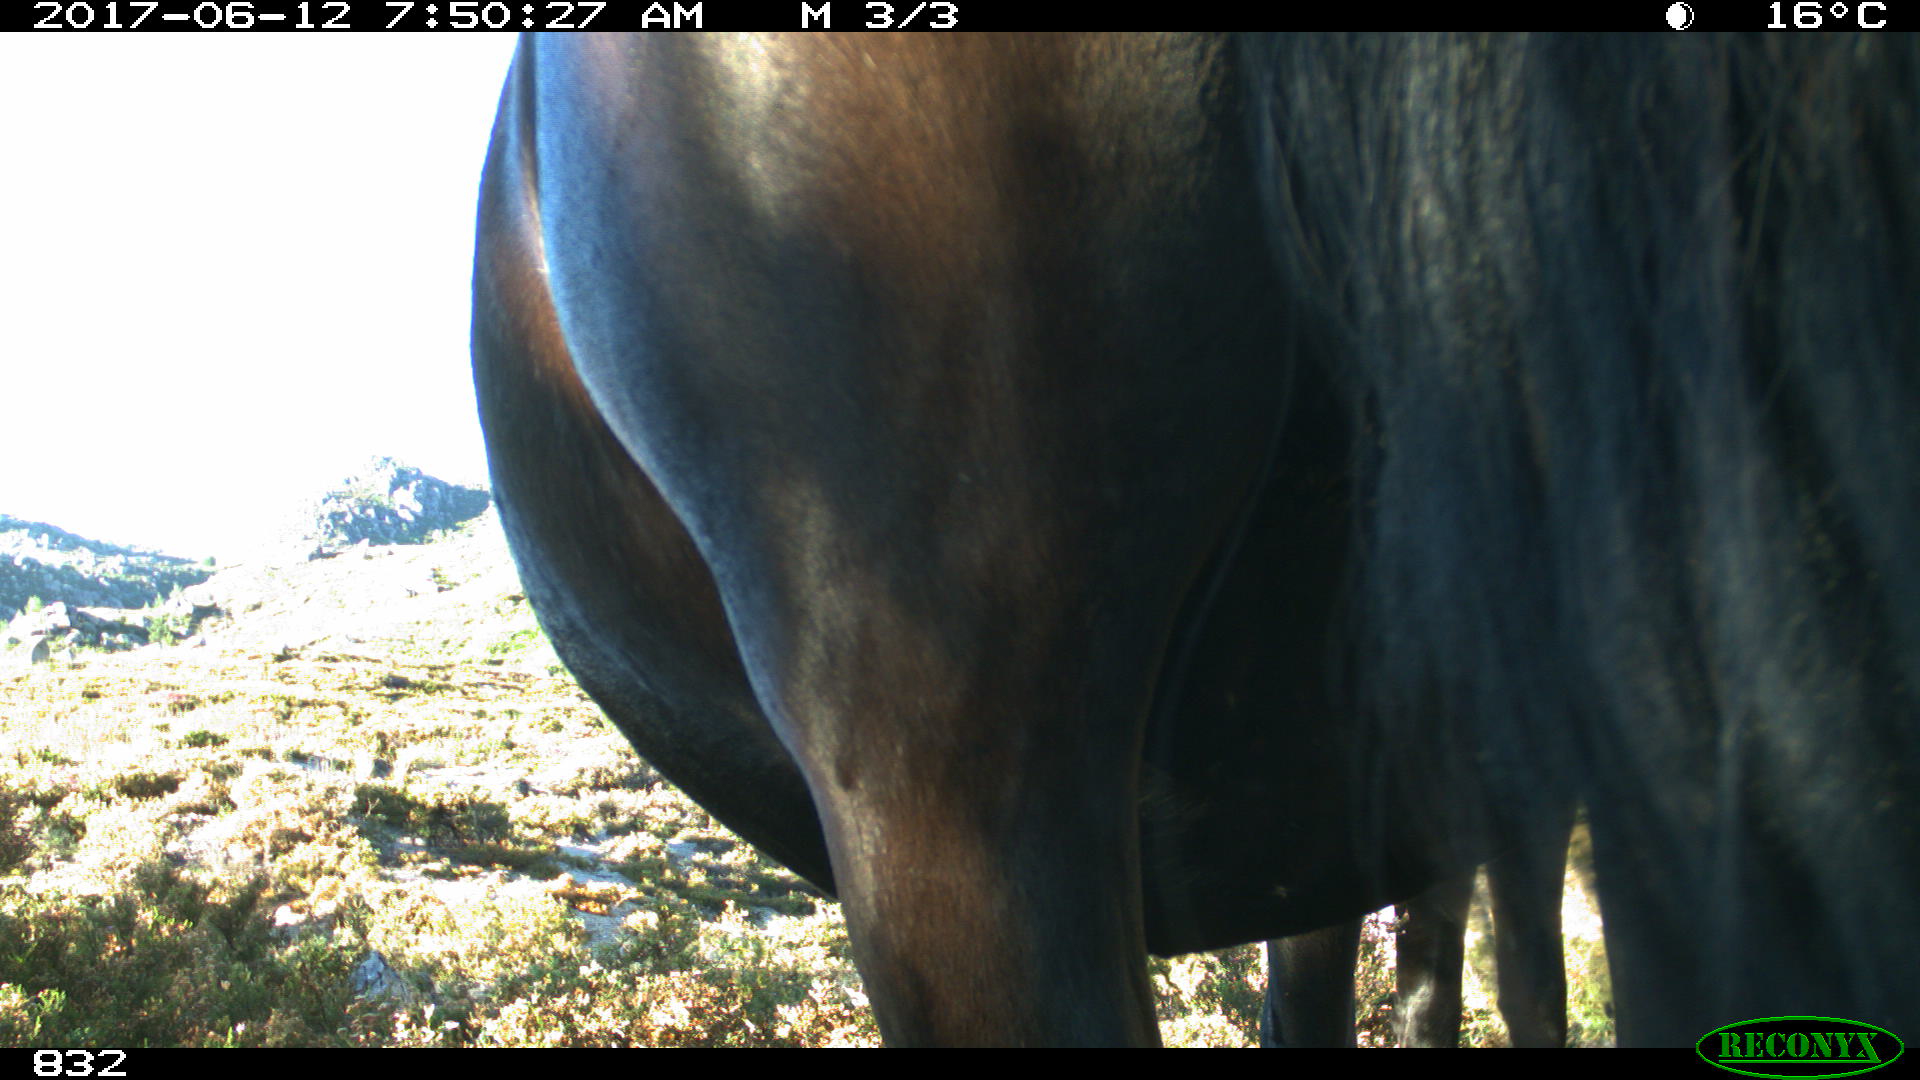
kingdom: Animalia
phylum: Chordata
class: Mammalia
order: Perissodactyla
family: Equidae
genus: Equus
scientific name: Equus caballus
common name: Horse
